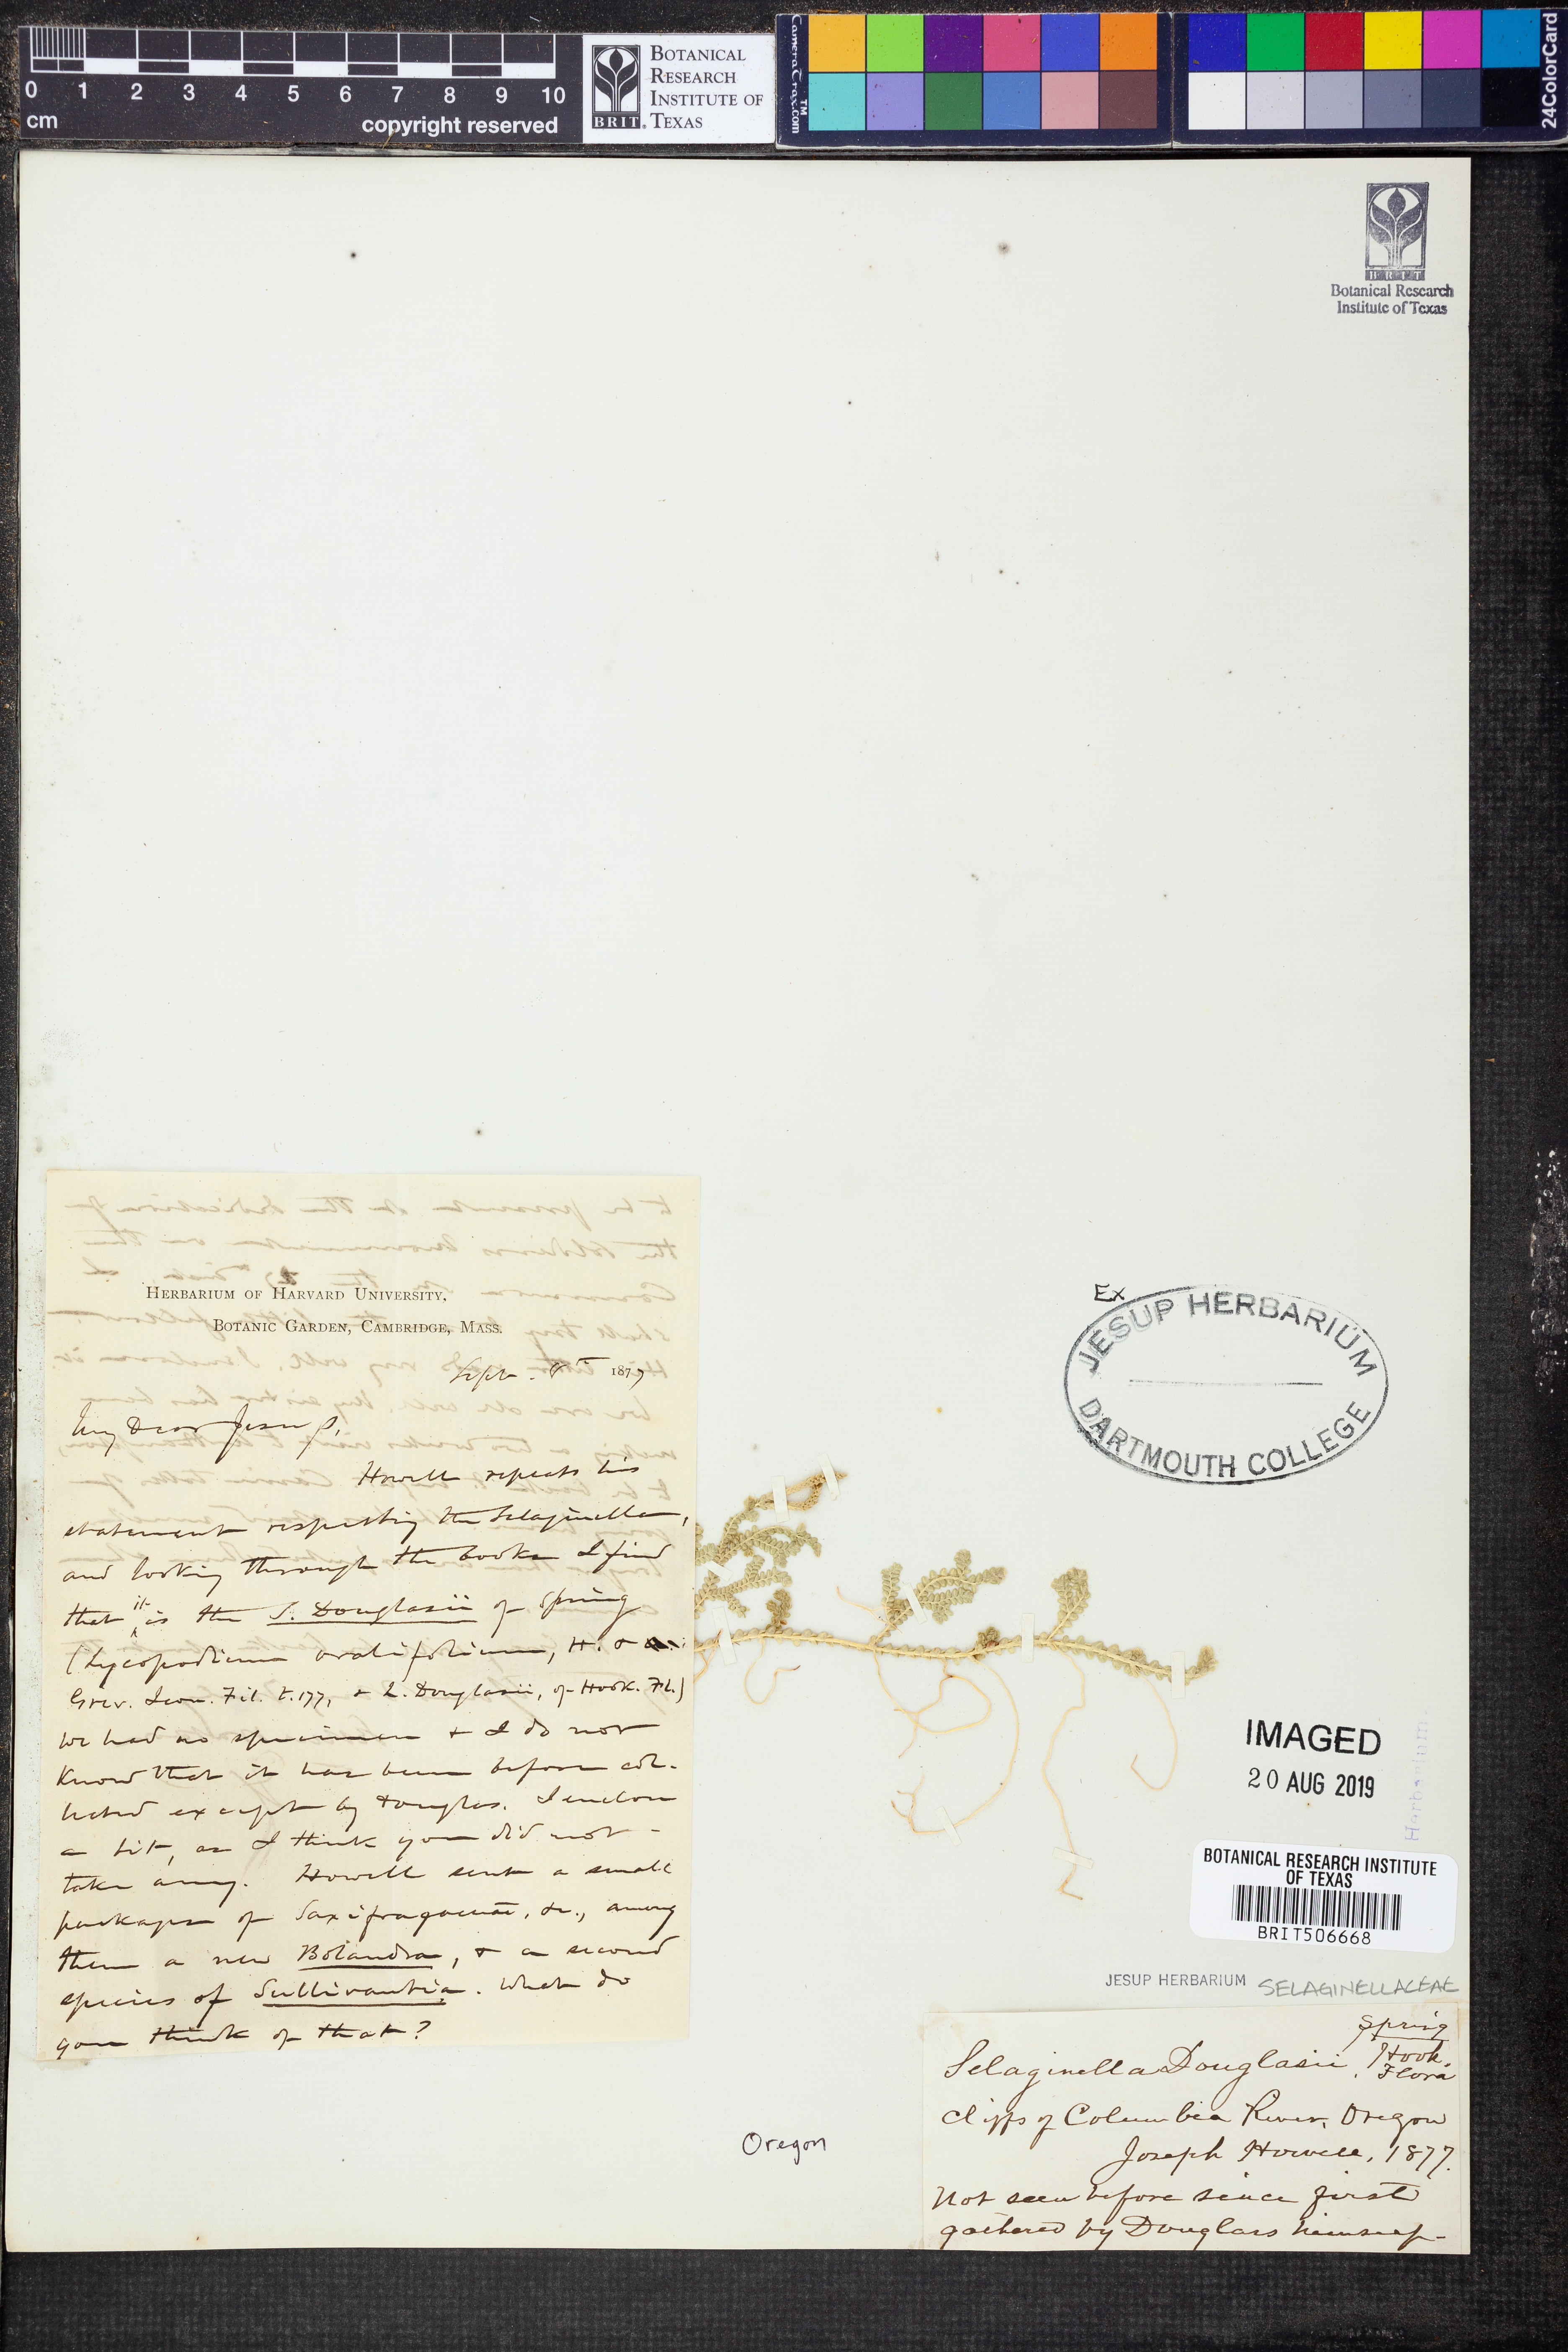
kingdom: Plantae
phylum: Tracheophyta
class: Lycopodiopsida
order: Selaginellales
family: Selaginellaceae
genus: Selaginella
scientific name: Selaginella douglasii
